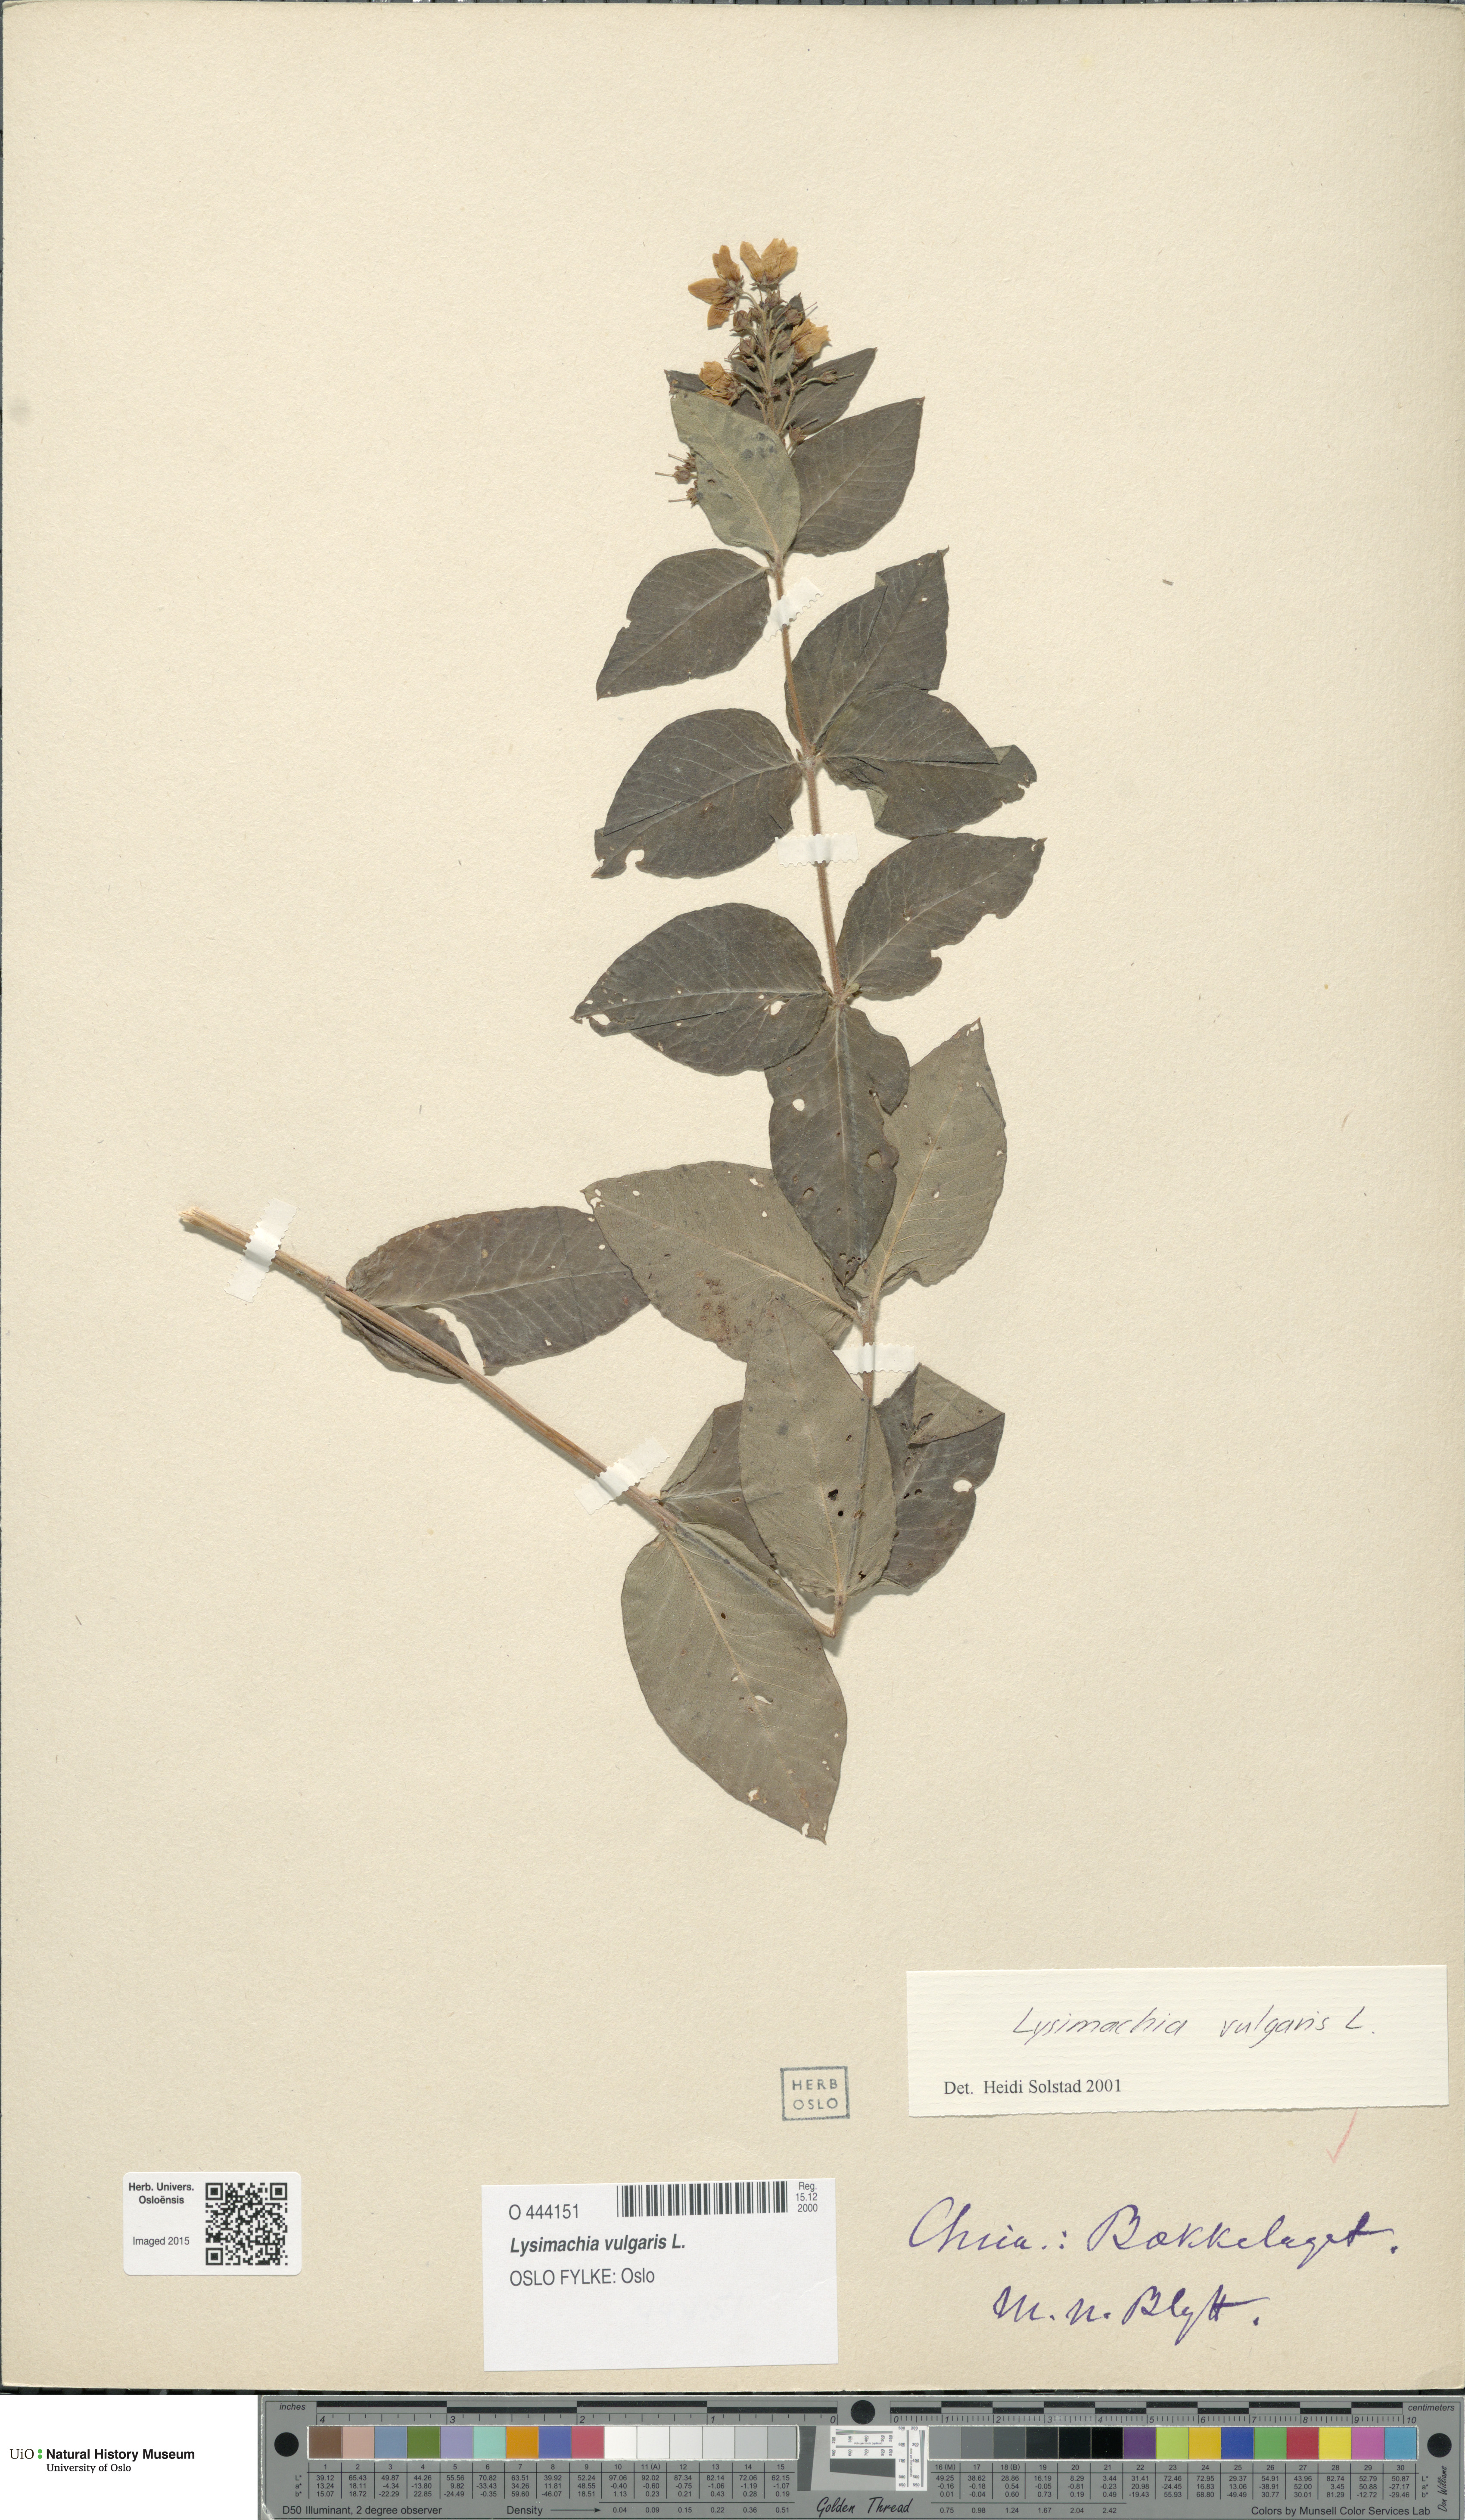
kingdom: Plantae
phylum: Tracheophyta
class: Magnoliopsida
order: Ericales
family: Primulaceae
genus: Lysimachia
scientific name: Lysimachia vulgaris
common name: Yellow loosestrife
